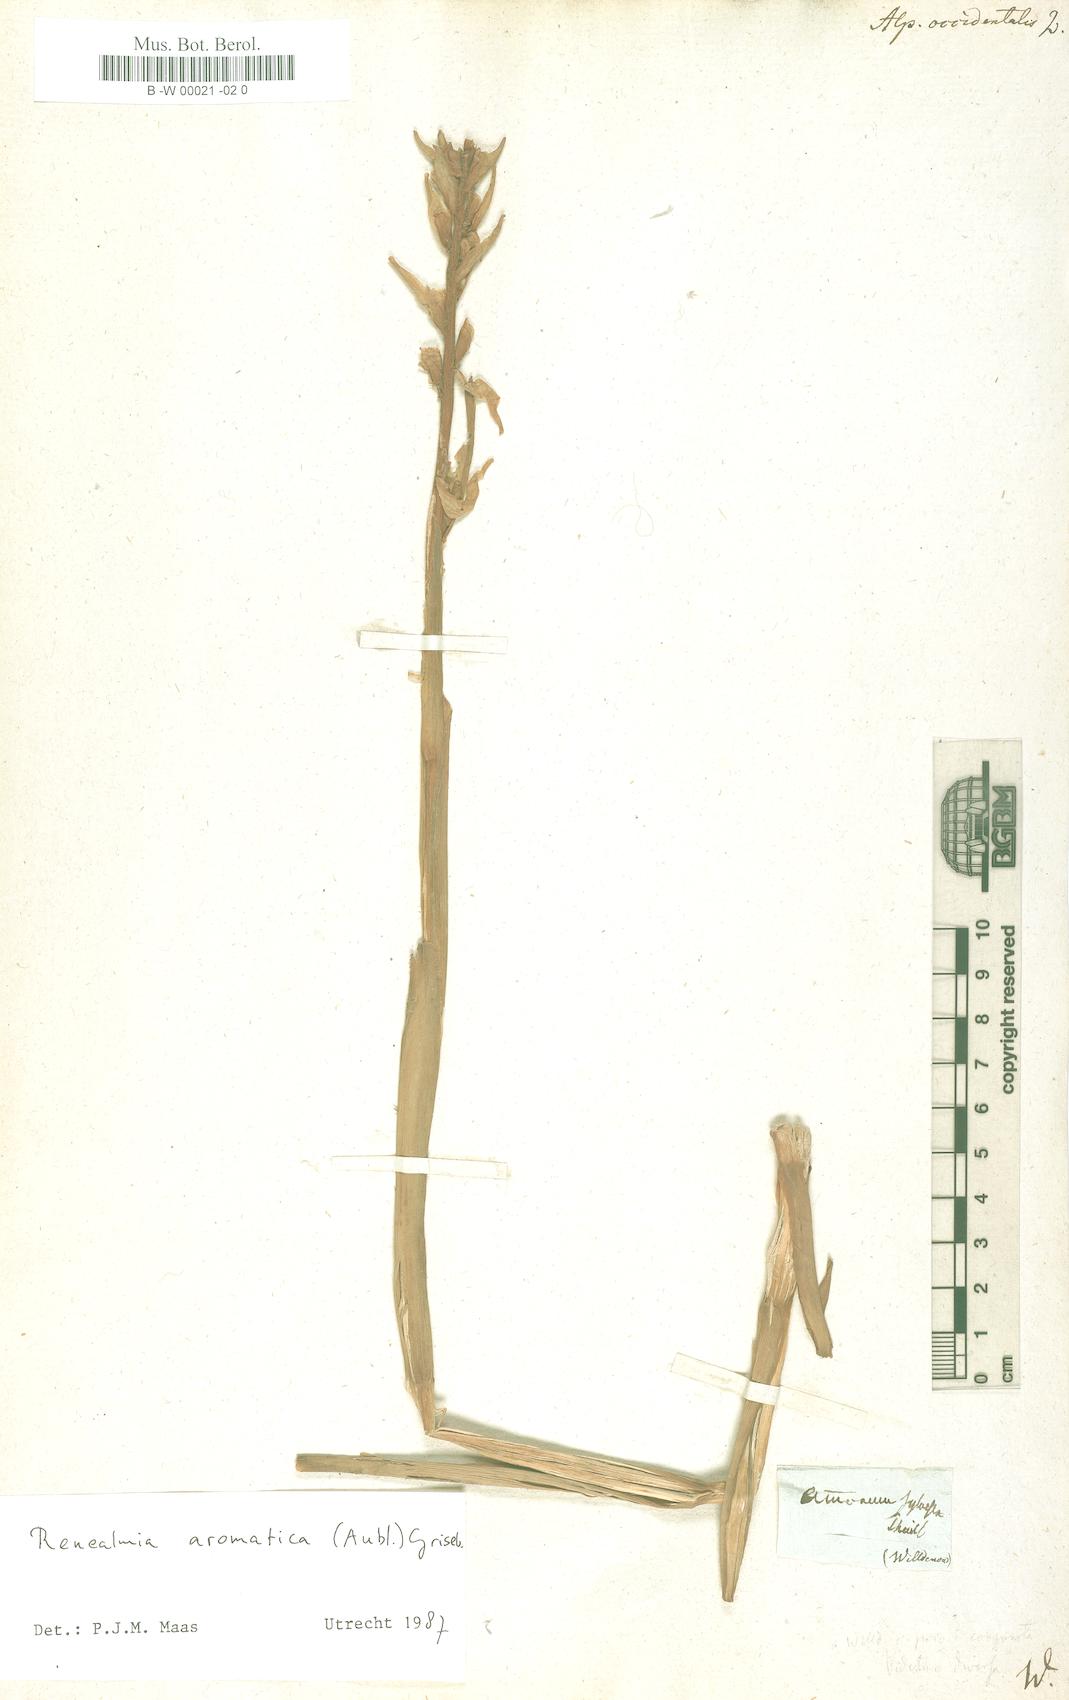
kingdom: Plantae
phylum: Tracheophyta
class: Liliopsida
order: Zingiberales
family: Zingiberaceae
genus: Renealmia
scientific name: Renealmia aromatica
